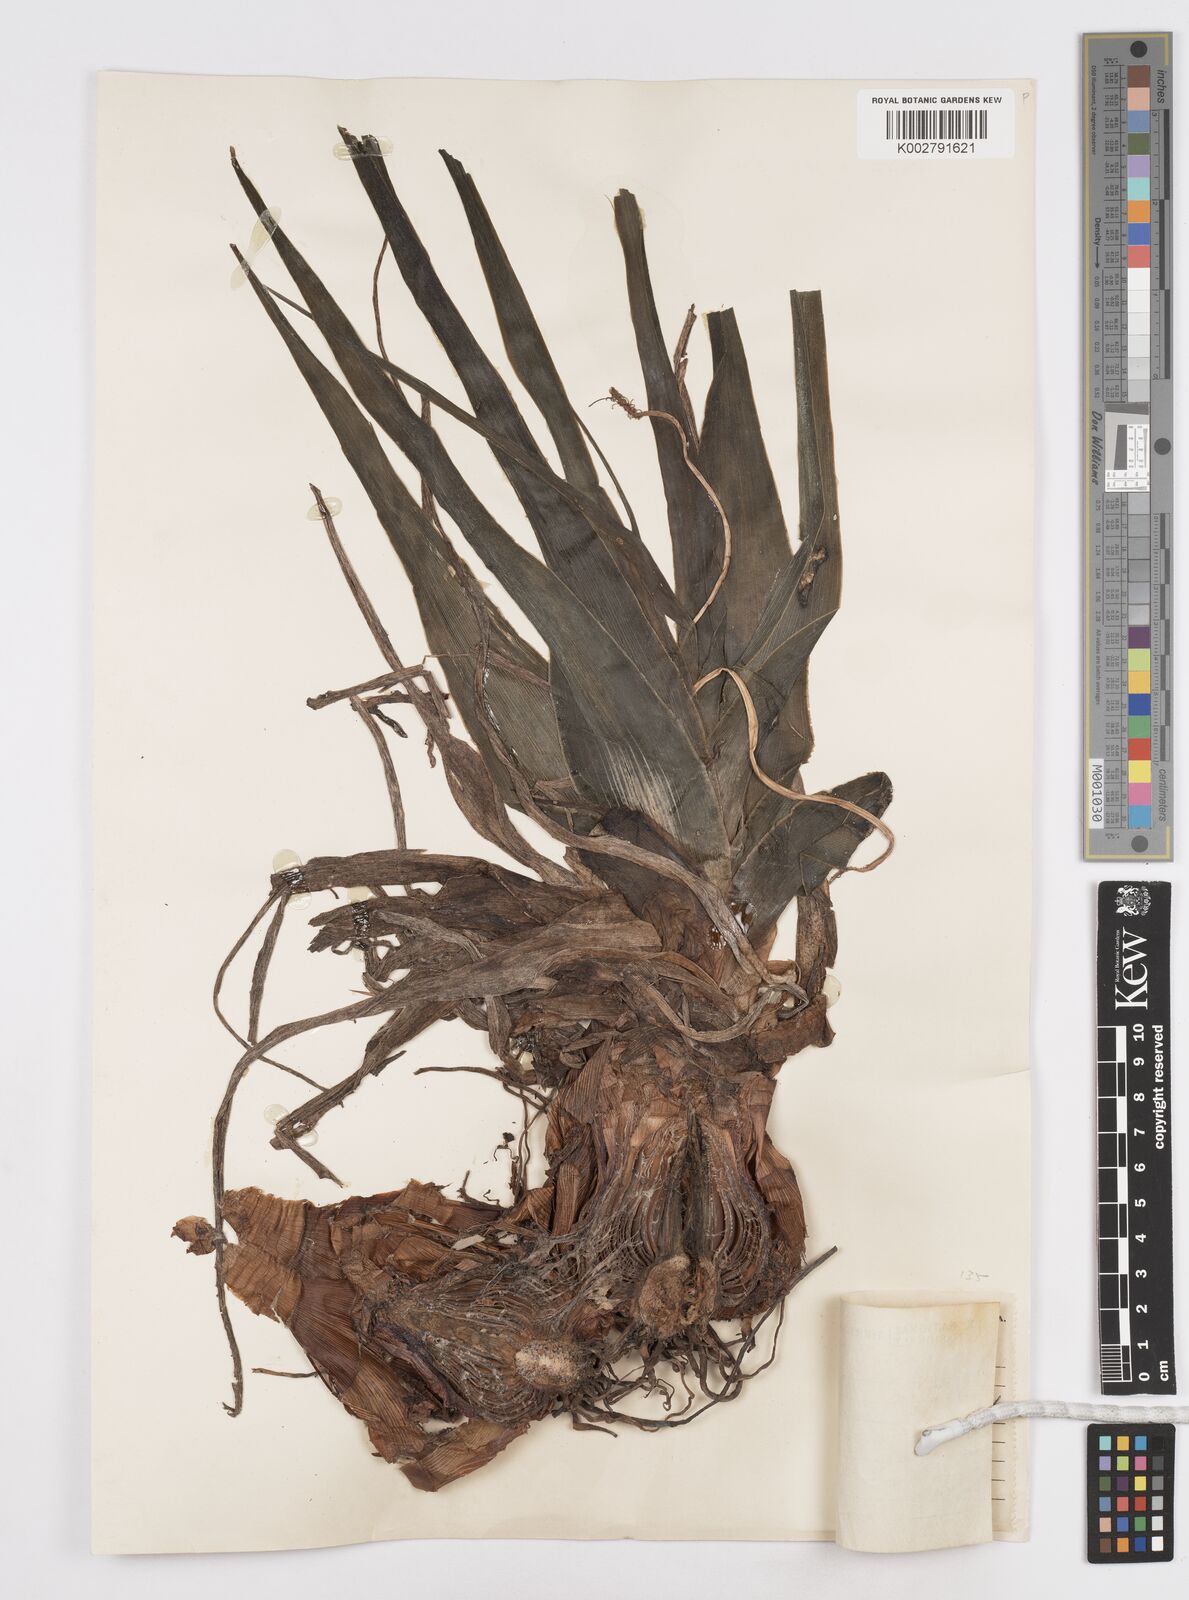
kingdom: Plantae
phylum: Tracheophyta
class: Liliopsida
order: Asparagales
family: Asparagaceae
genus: Scilla
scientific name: Scilla
